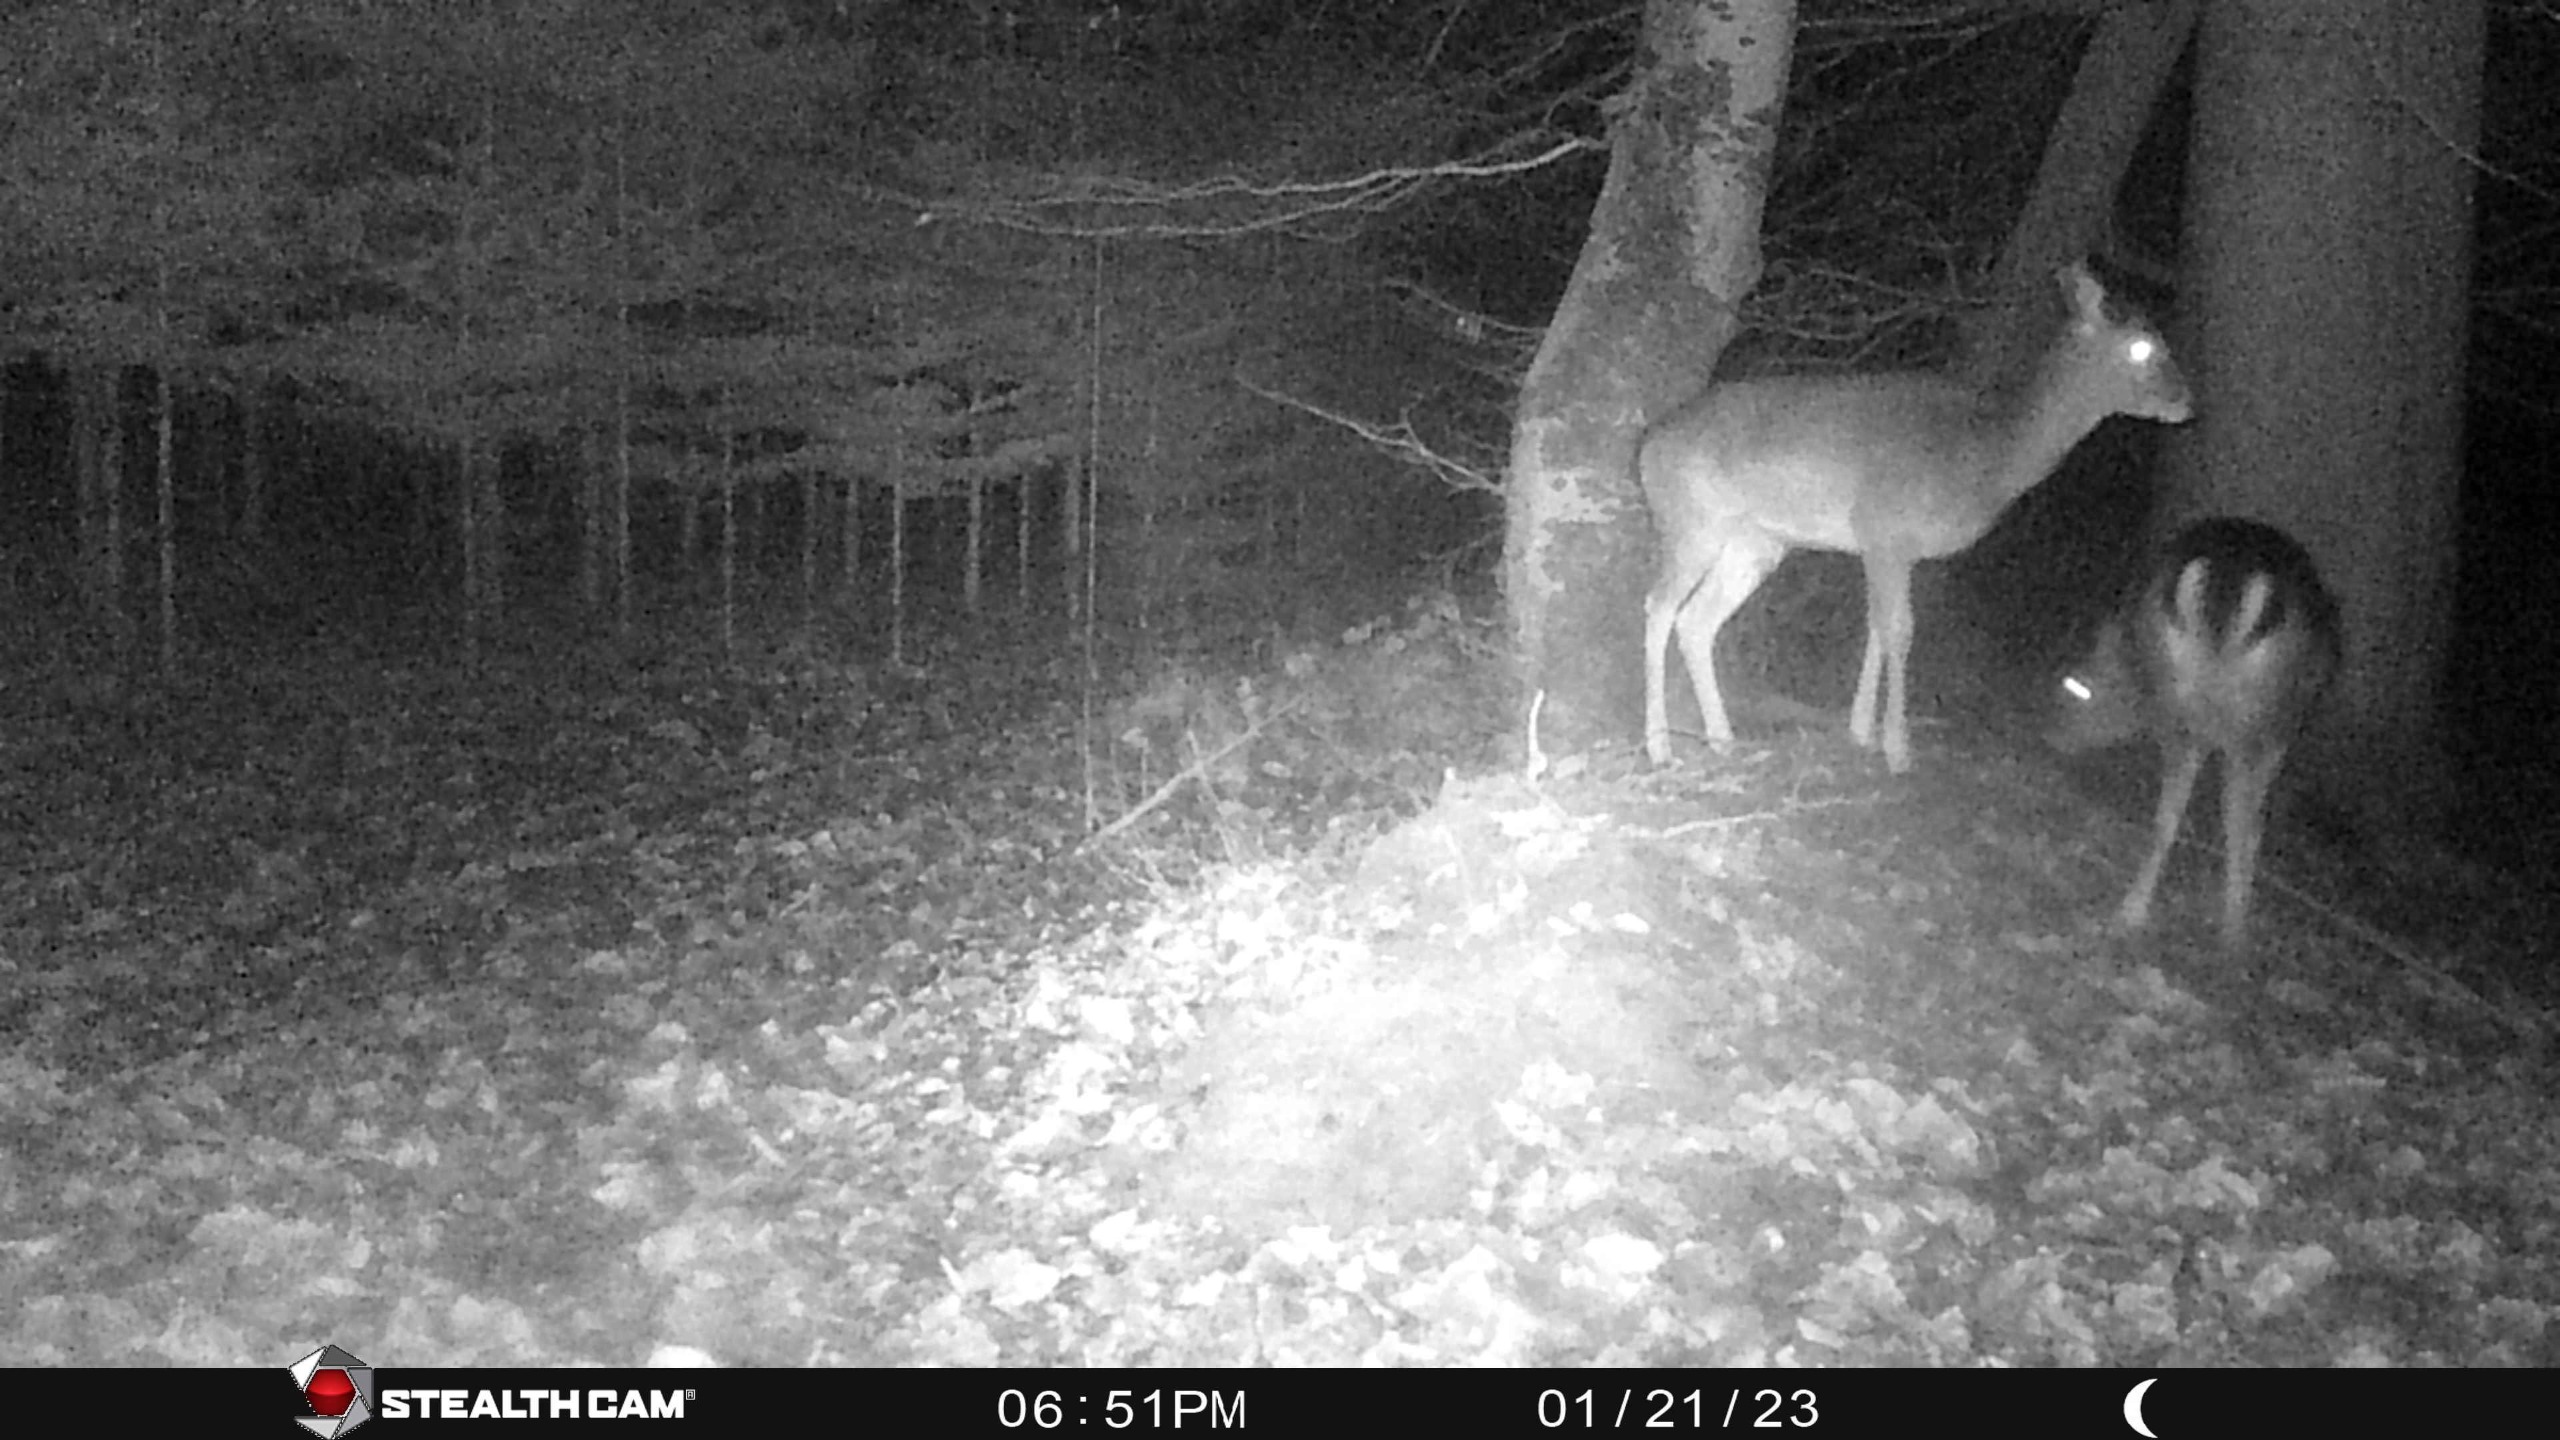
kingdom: Animalia
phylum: Chordata
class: Mammalia
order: Artiodactyla
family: Cervidae
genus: Dama
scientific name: Dama dama
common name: Dådyr
